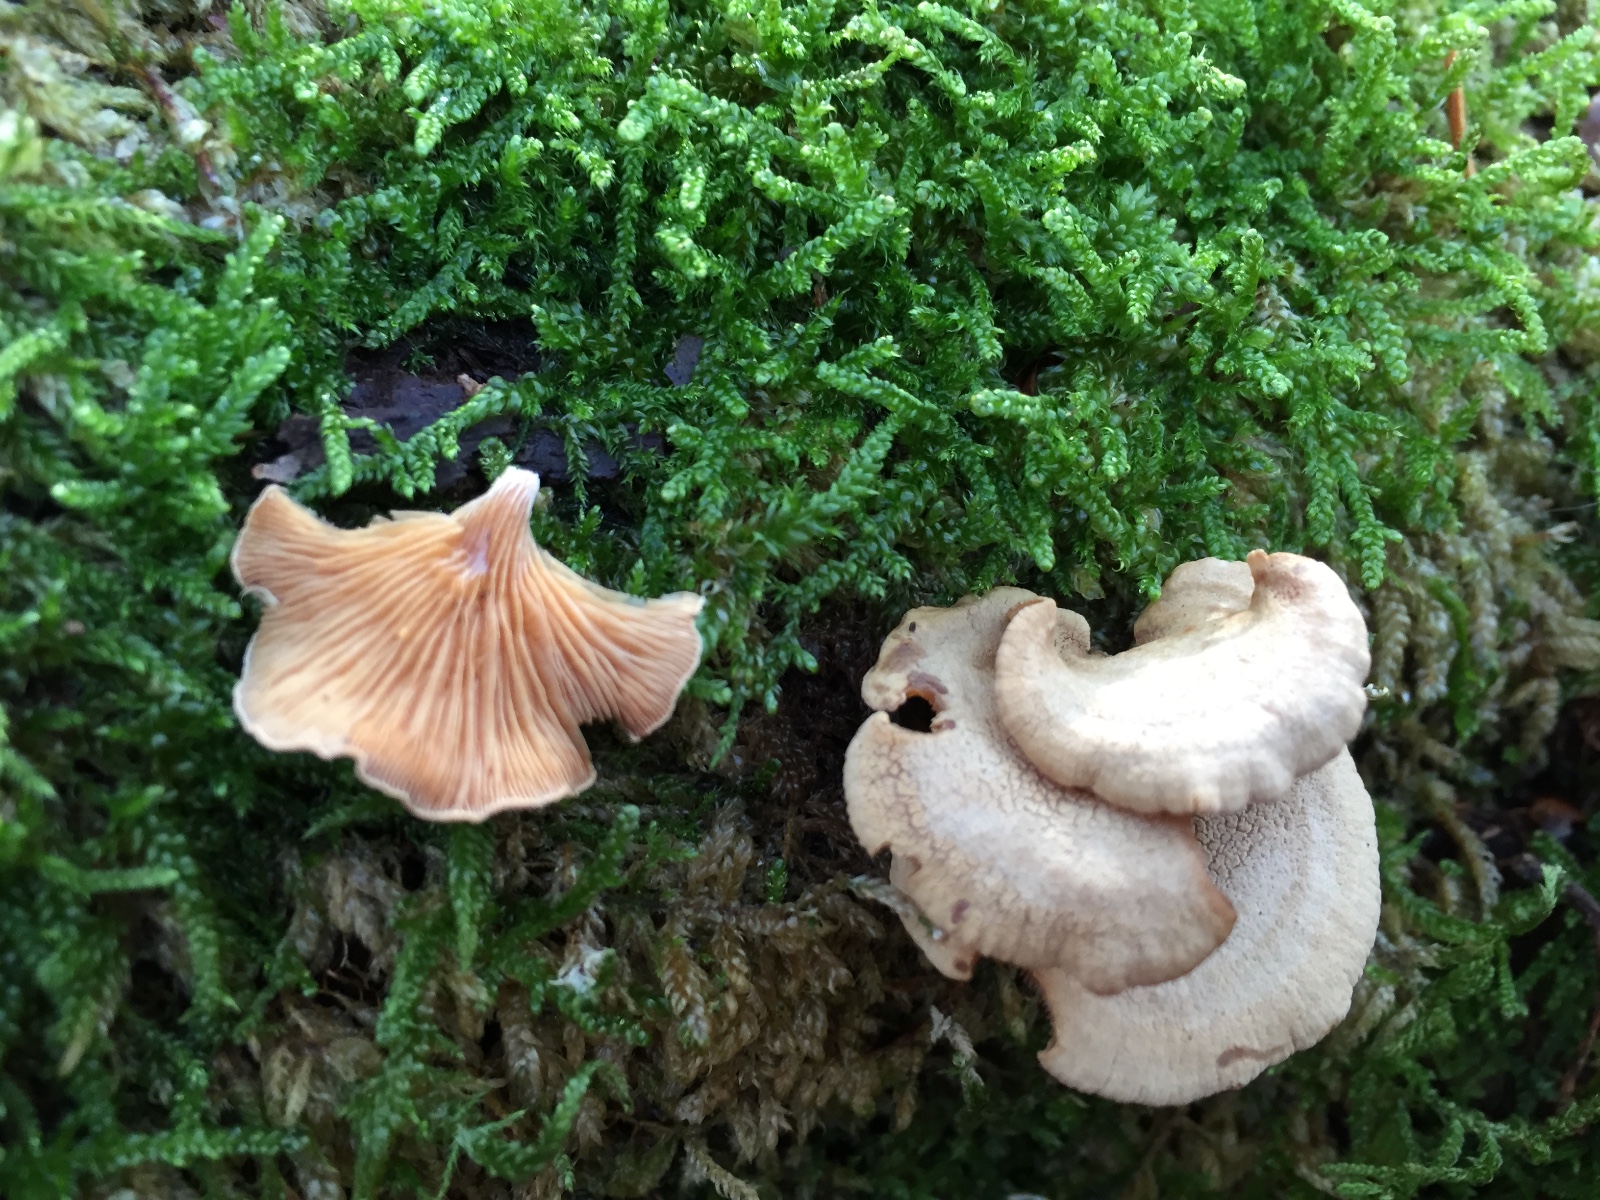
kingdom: Fungi
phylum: Basidiomycota
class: Agaricomycetes
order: Agaricales
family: Mycenaceae
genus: Panellus
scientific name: Panellus stipticus
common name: kliddet epaulethat
